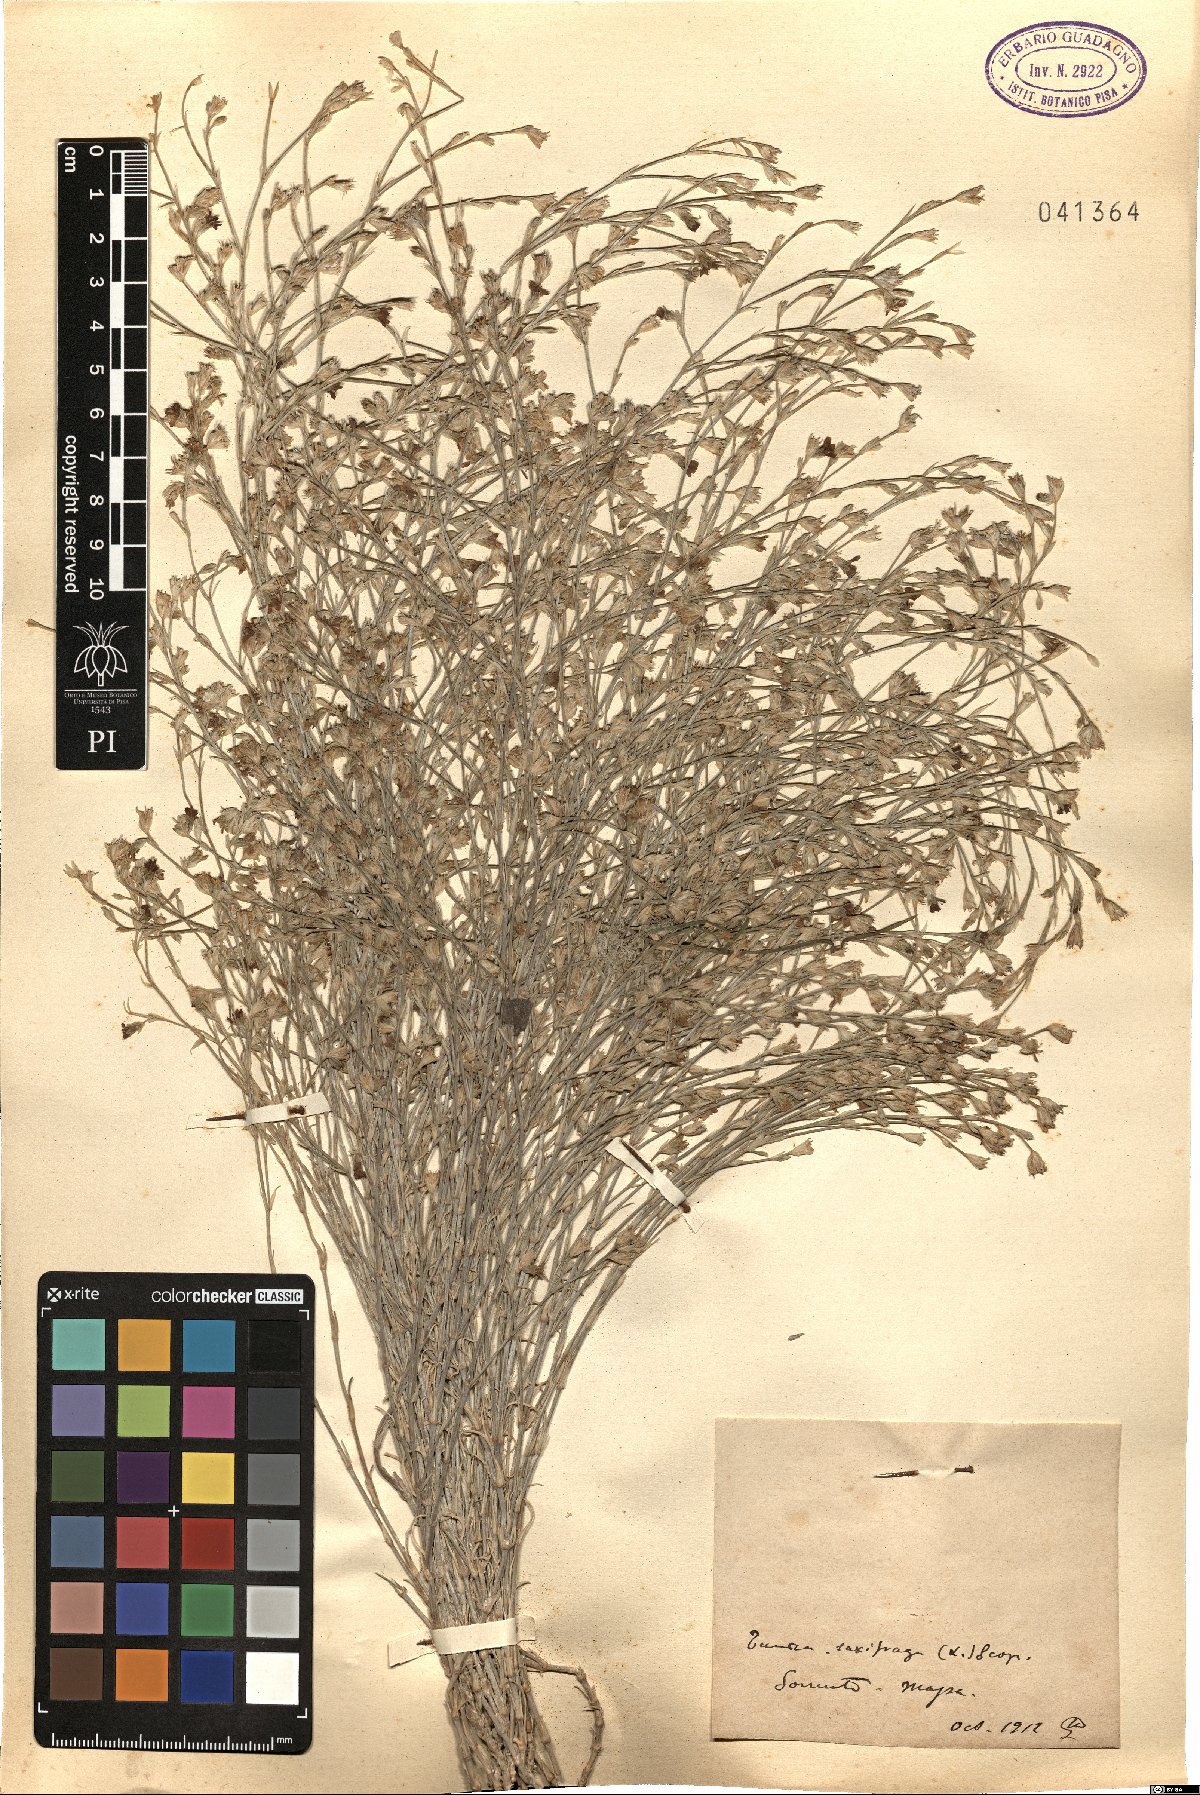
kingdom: Plantae
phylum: Tracheophyta
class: Magnoliopsida
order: Caryophyllales
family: Caryophyllaceae
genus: Petrorhagia
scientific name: Petrorhagia saxifraga
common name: Tunicflower
